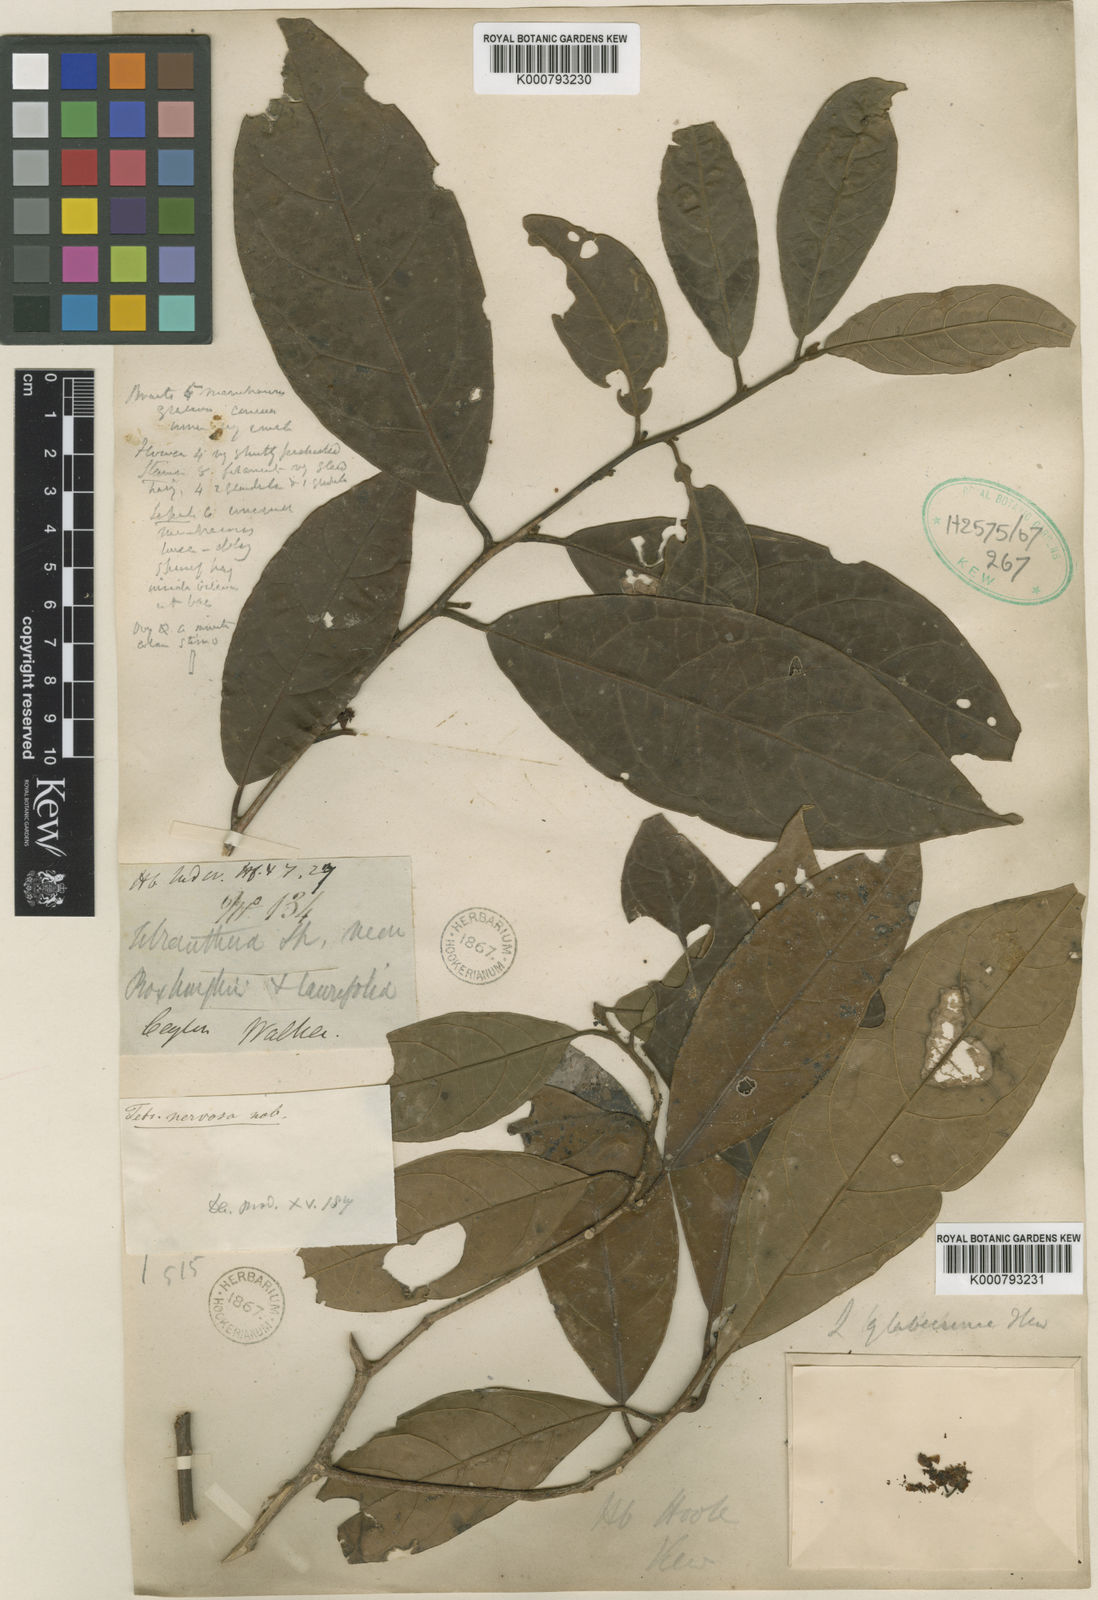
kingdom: Plantae
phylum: Tracheophyta
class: Magnoliopsida
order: Laurales
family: Lauraceae
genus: Litsea
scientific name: Litsea glaberrima
